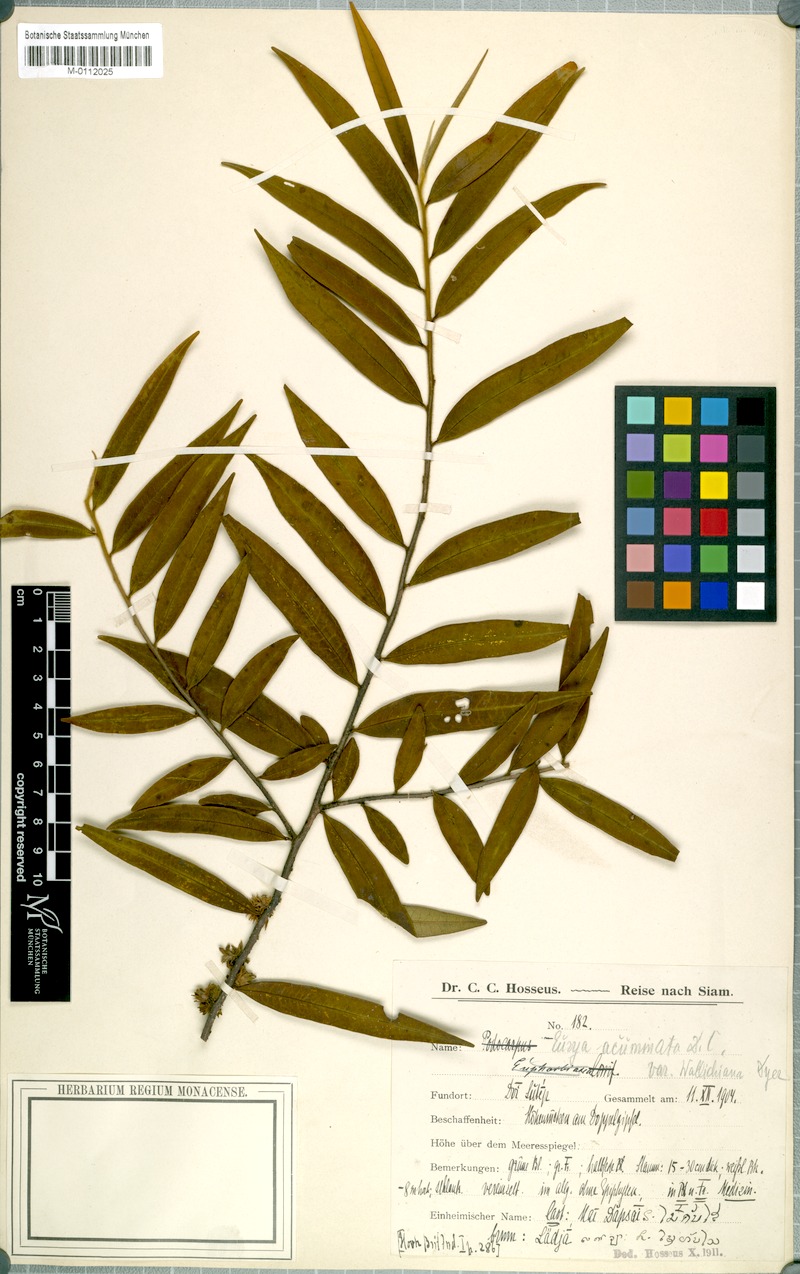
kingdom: Plantae
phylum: Tracheophyta
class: Magnoliopsida
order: Ericales
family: Pentaphylacaceae
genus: Eurya
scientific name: Eurya cerasifolia
